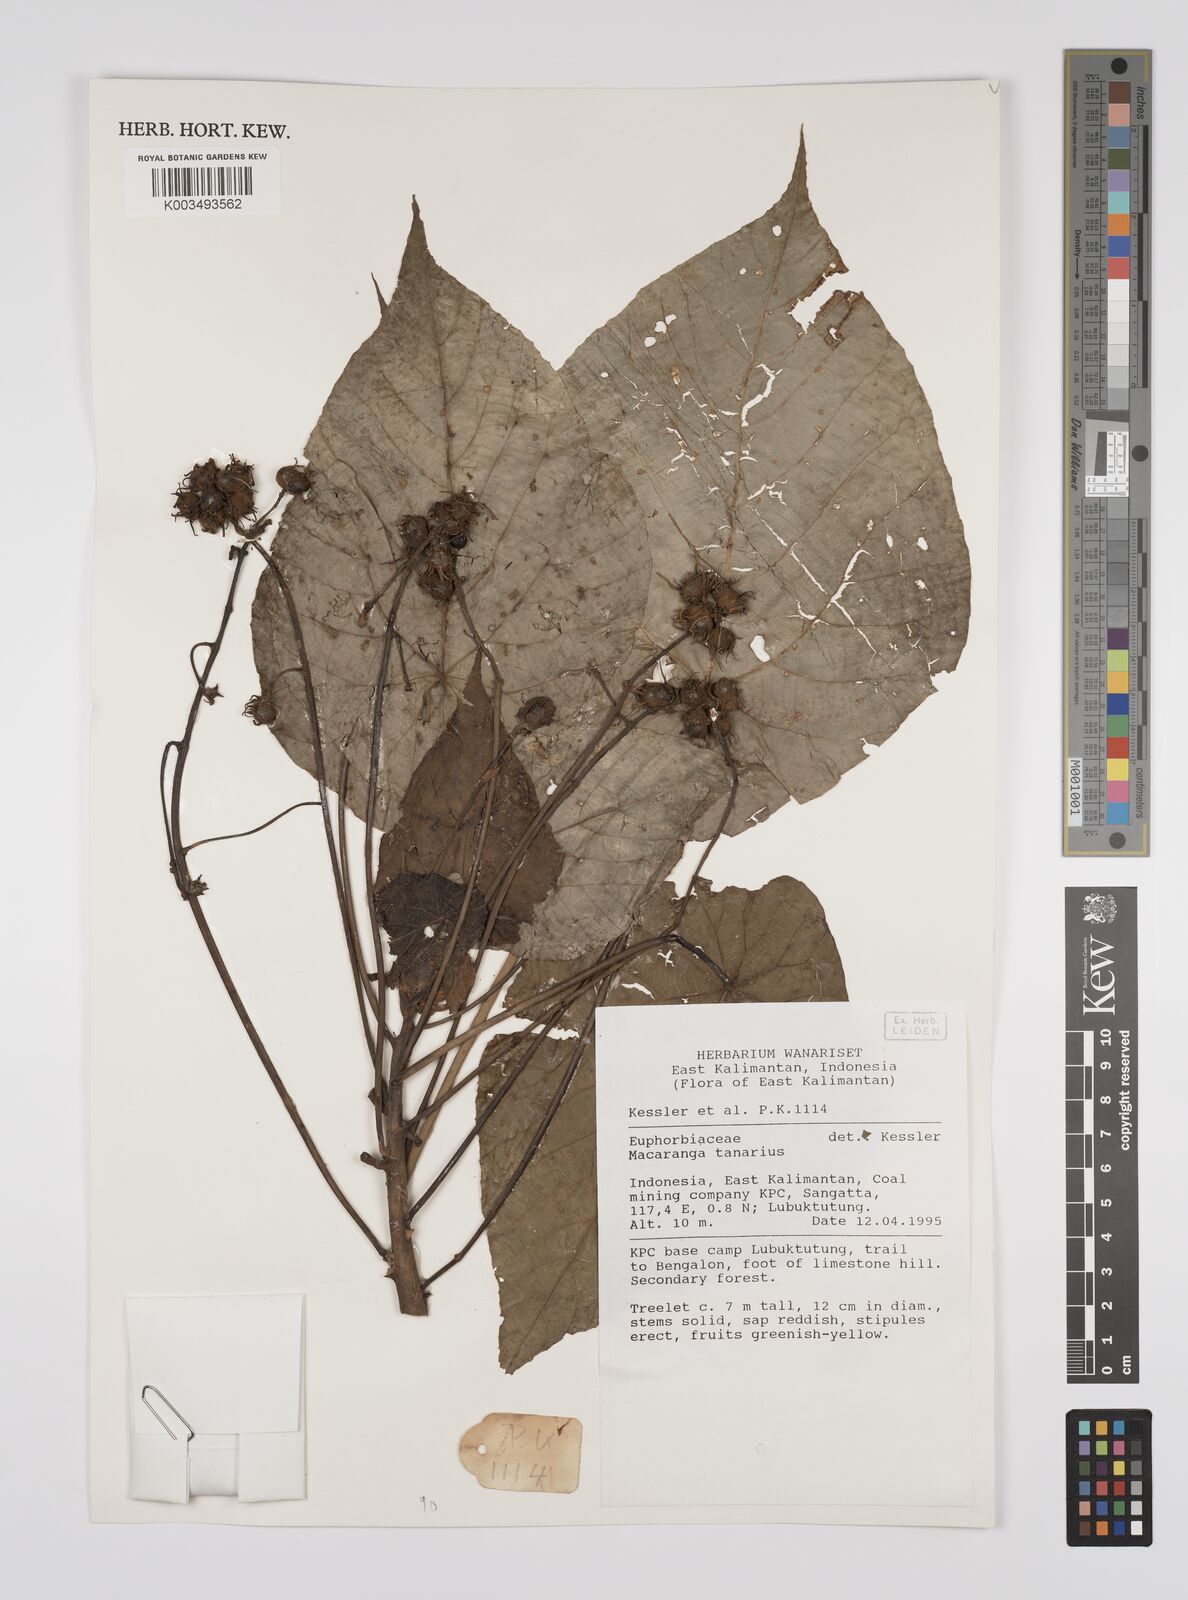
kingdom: Plantae
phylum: Tracheophyta
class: Magnoliopsida
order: Malpighiales
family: Euphorbiaceae
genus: Macaranga
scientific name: Macaranga tanarius
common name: Parasol leaf tree
